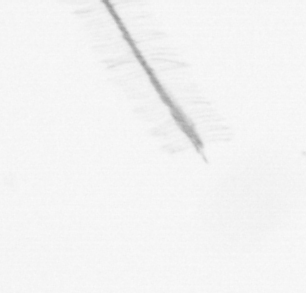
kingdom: Chromista
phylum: Ochrophyta
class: Bacillariophyceae
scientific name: Bacillariophyceae
